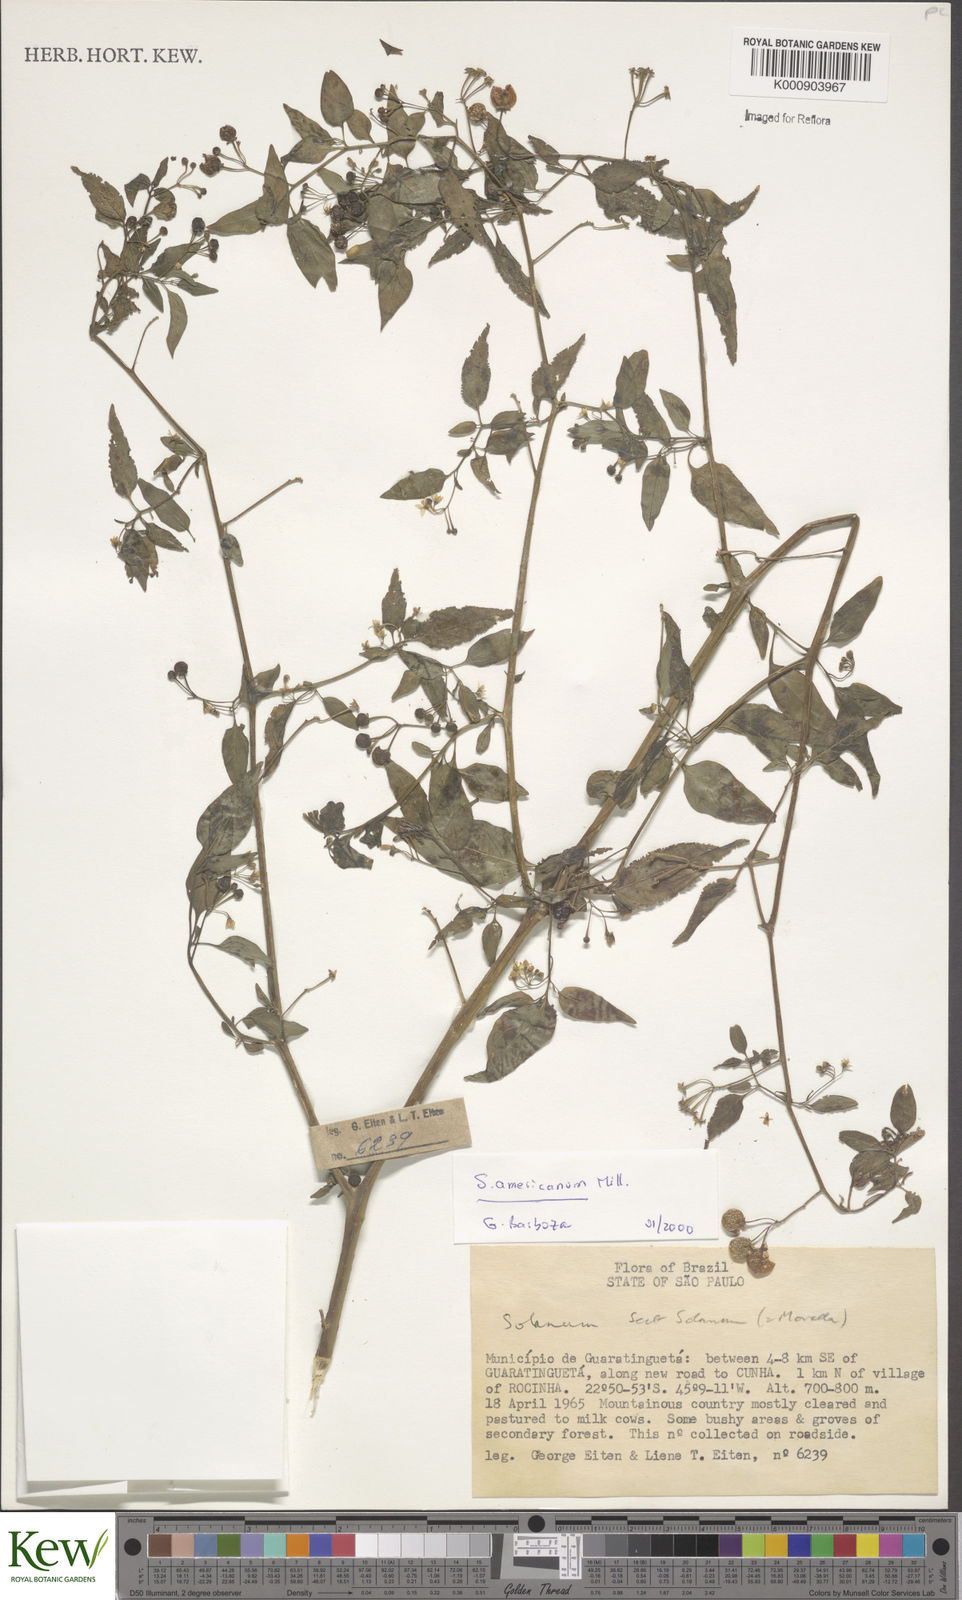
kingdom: Plantae
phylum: Tracheophyta
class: Magnoliopsida
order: Solanales
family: Solanaceae
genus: Solanum
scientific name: Solanum americanum
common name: American black nightshade
